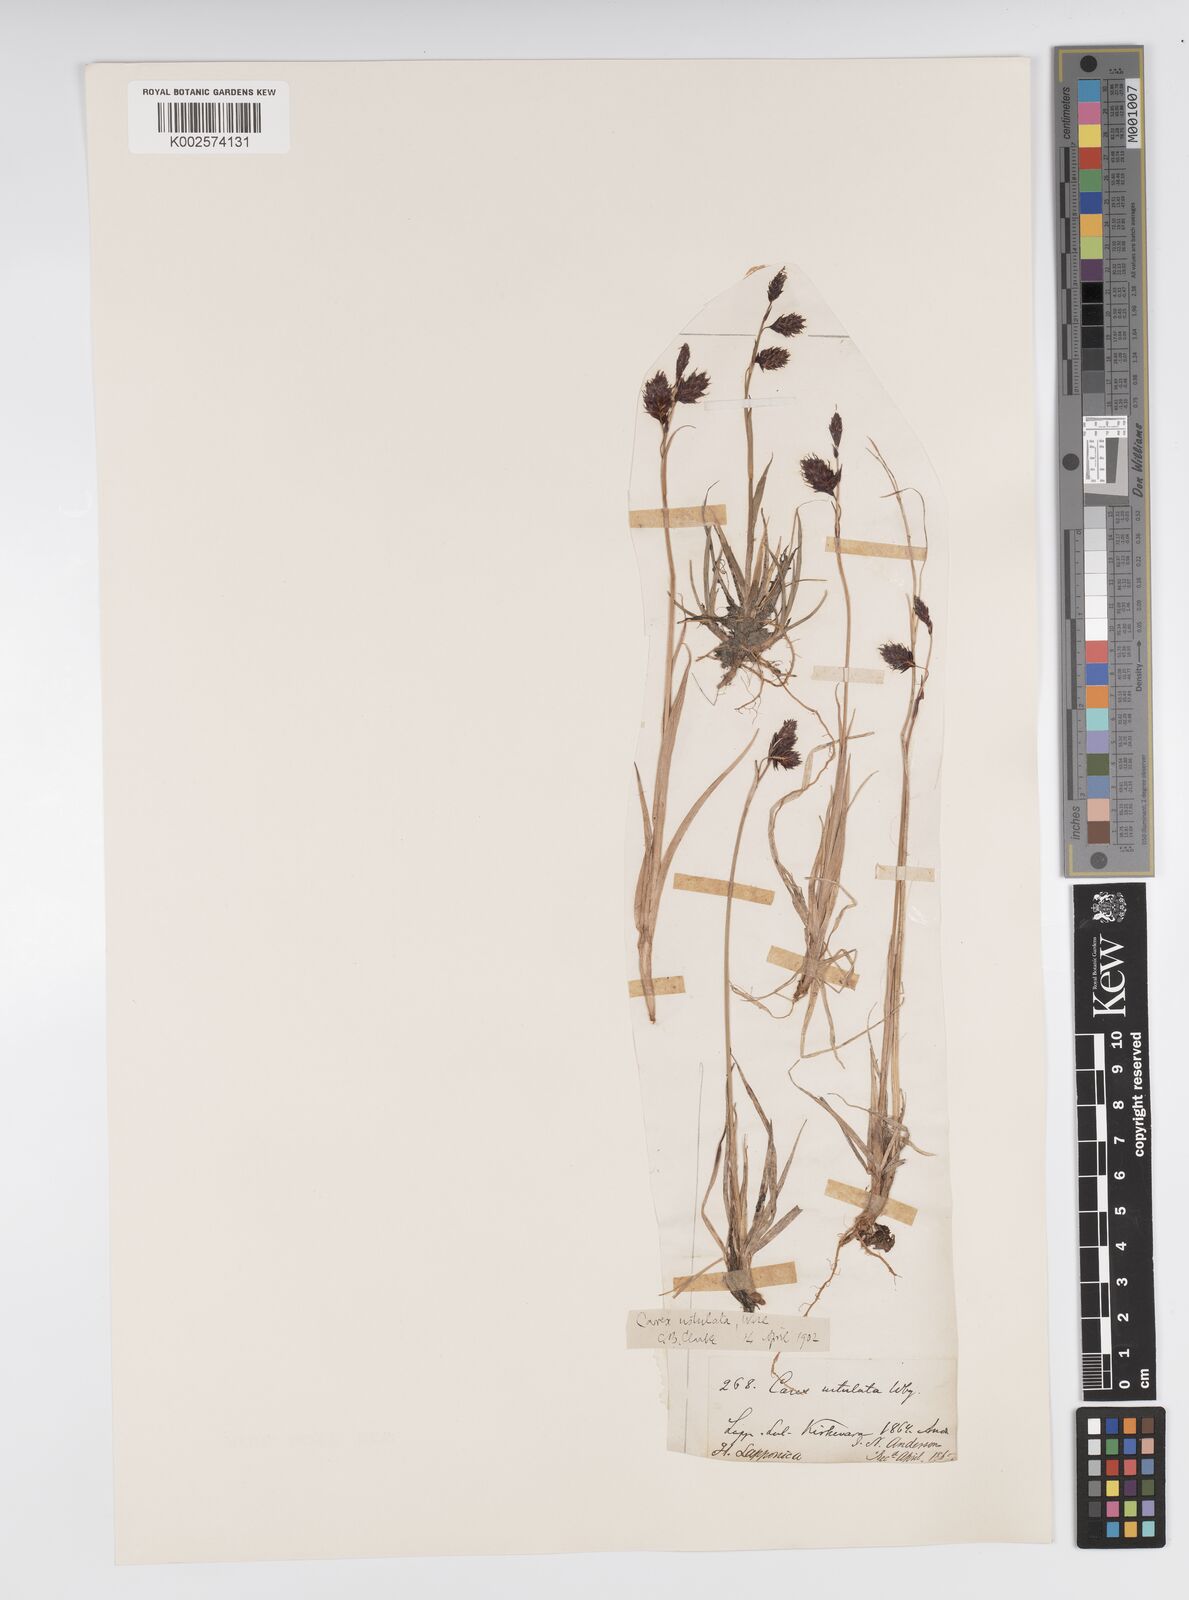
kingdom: Plantae
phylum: Tracheophyta
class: Liliopsida
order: Poales
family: Cyperaceae
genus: Carex
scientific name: Carex atrofusca
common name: Scorched alpine-sedge
